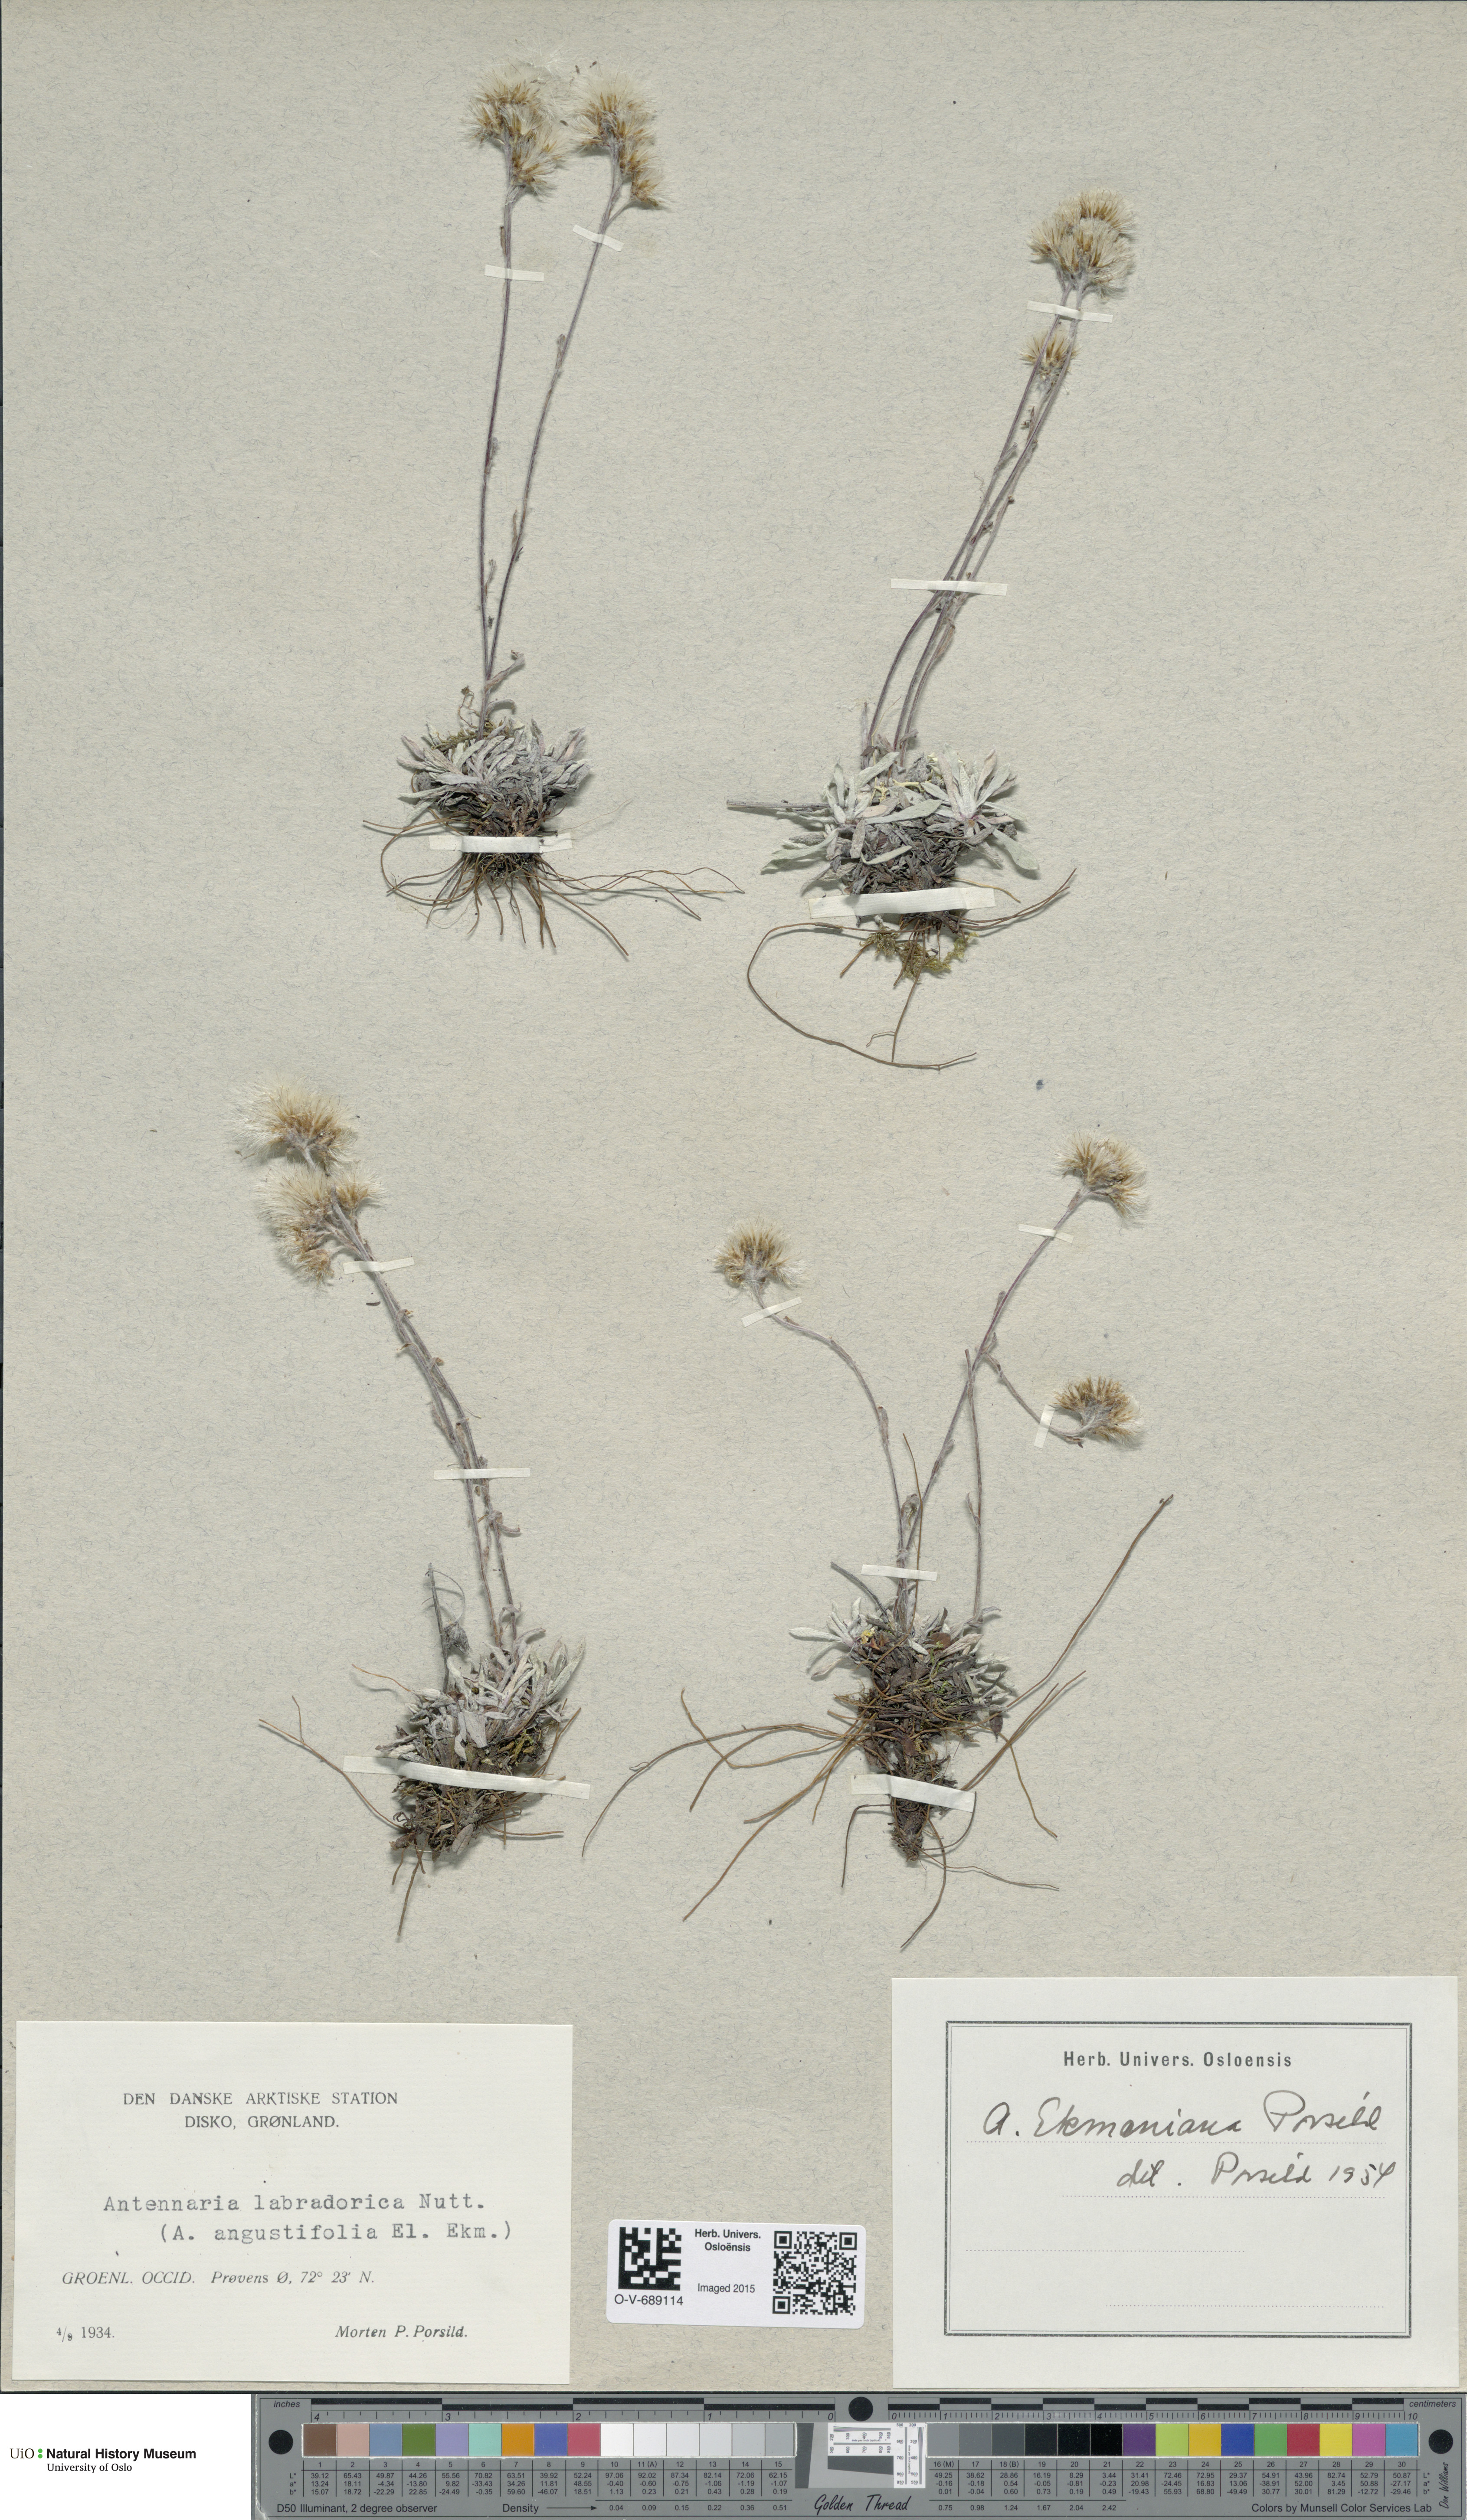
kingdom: Plantae
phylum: Tracheophyta
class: Magnoliopsida
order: Asterales
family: Asteraceae
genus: Antennaria
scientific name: Antennaria friesiana
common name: Fries' pussytoes
